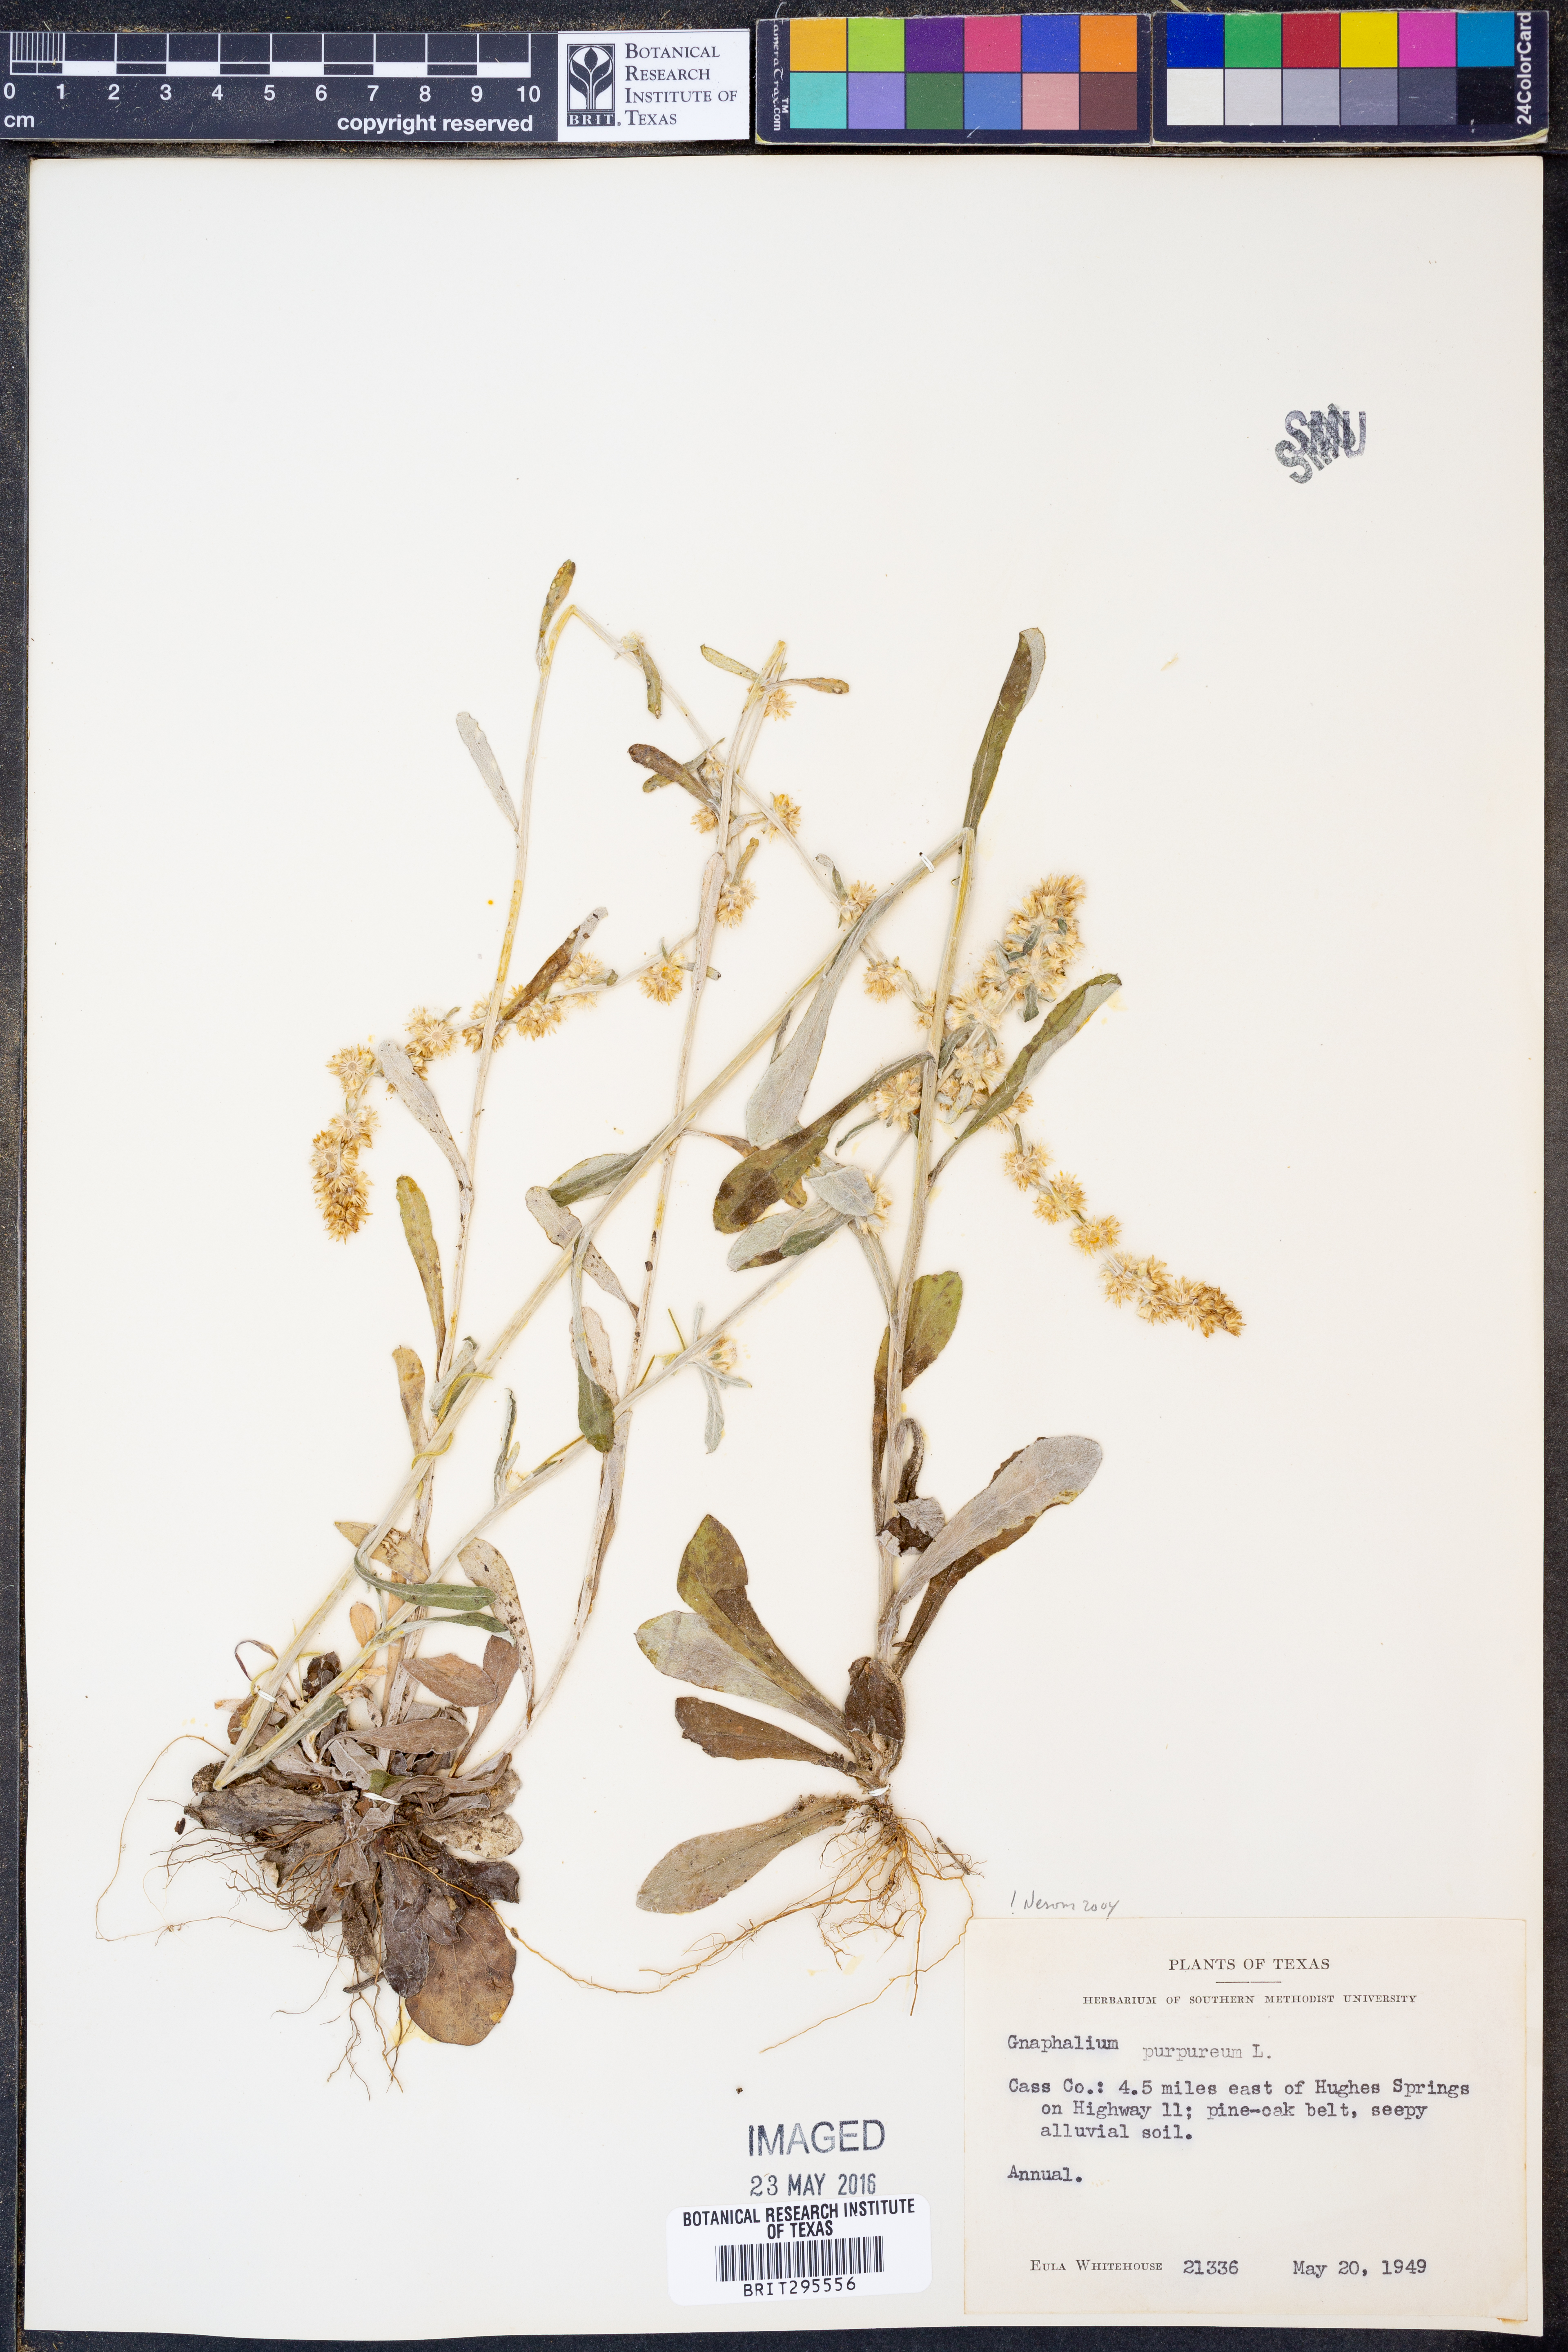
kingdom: Plantae
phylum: Tracheophyta
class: Magnoliopsida
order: Asterales
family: Asteraceae
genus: Gamochaeta
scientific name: Gamochaeta purpurea
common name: Purple cudweed
